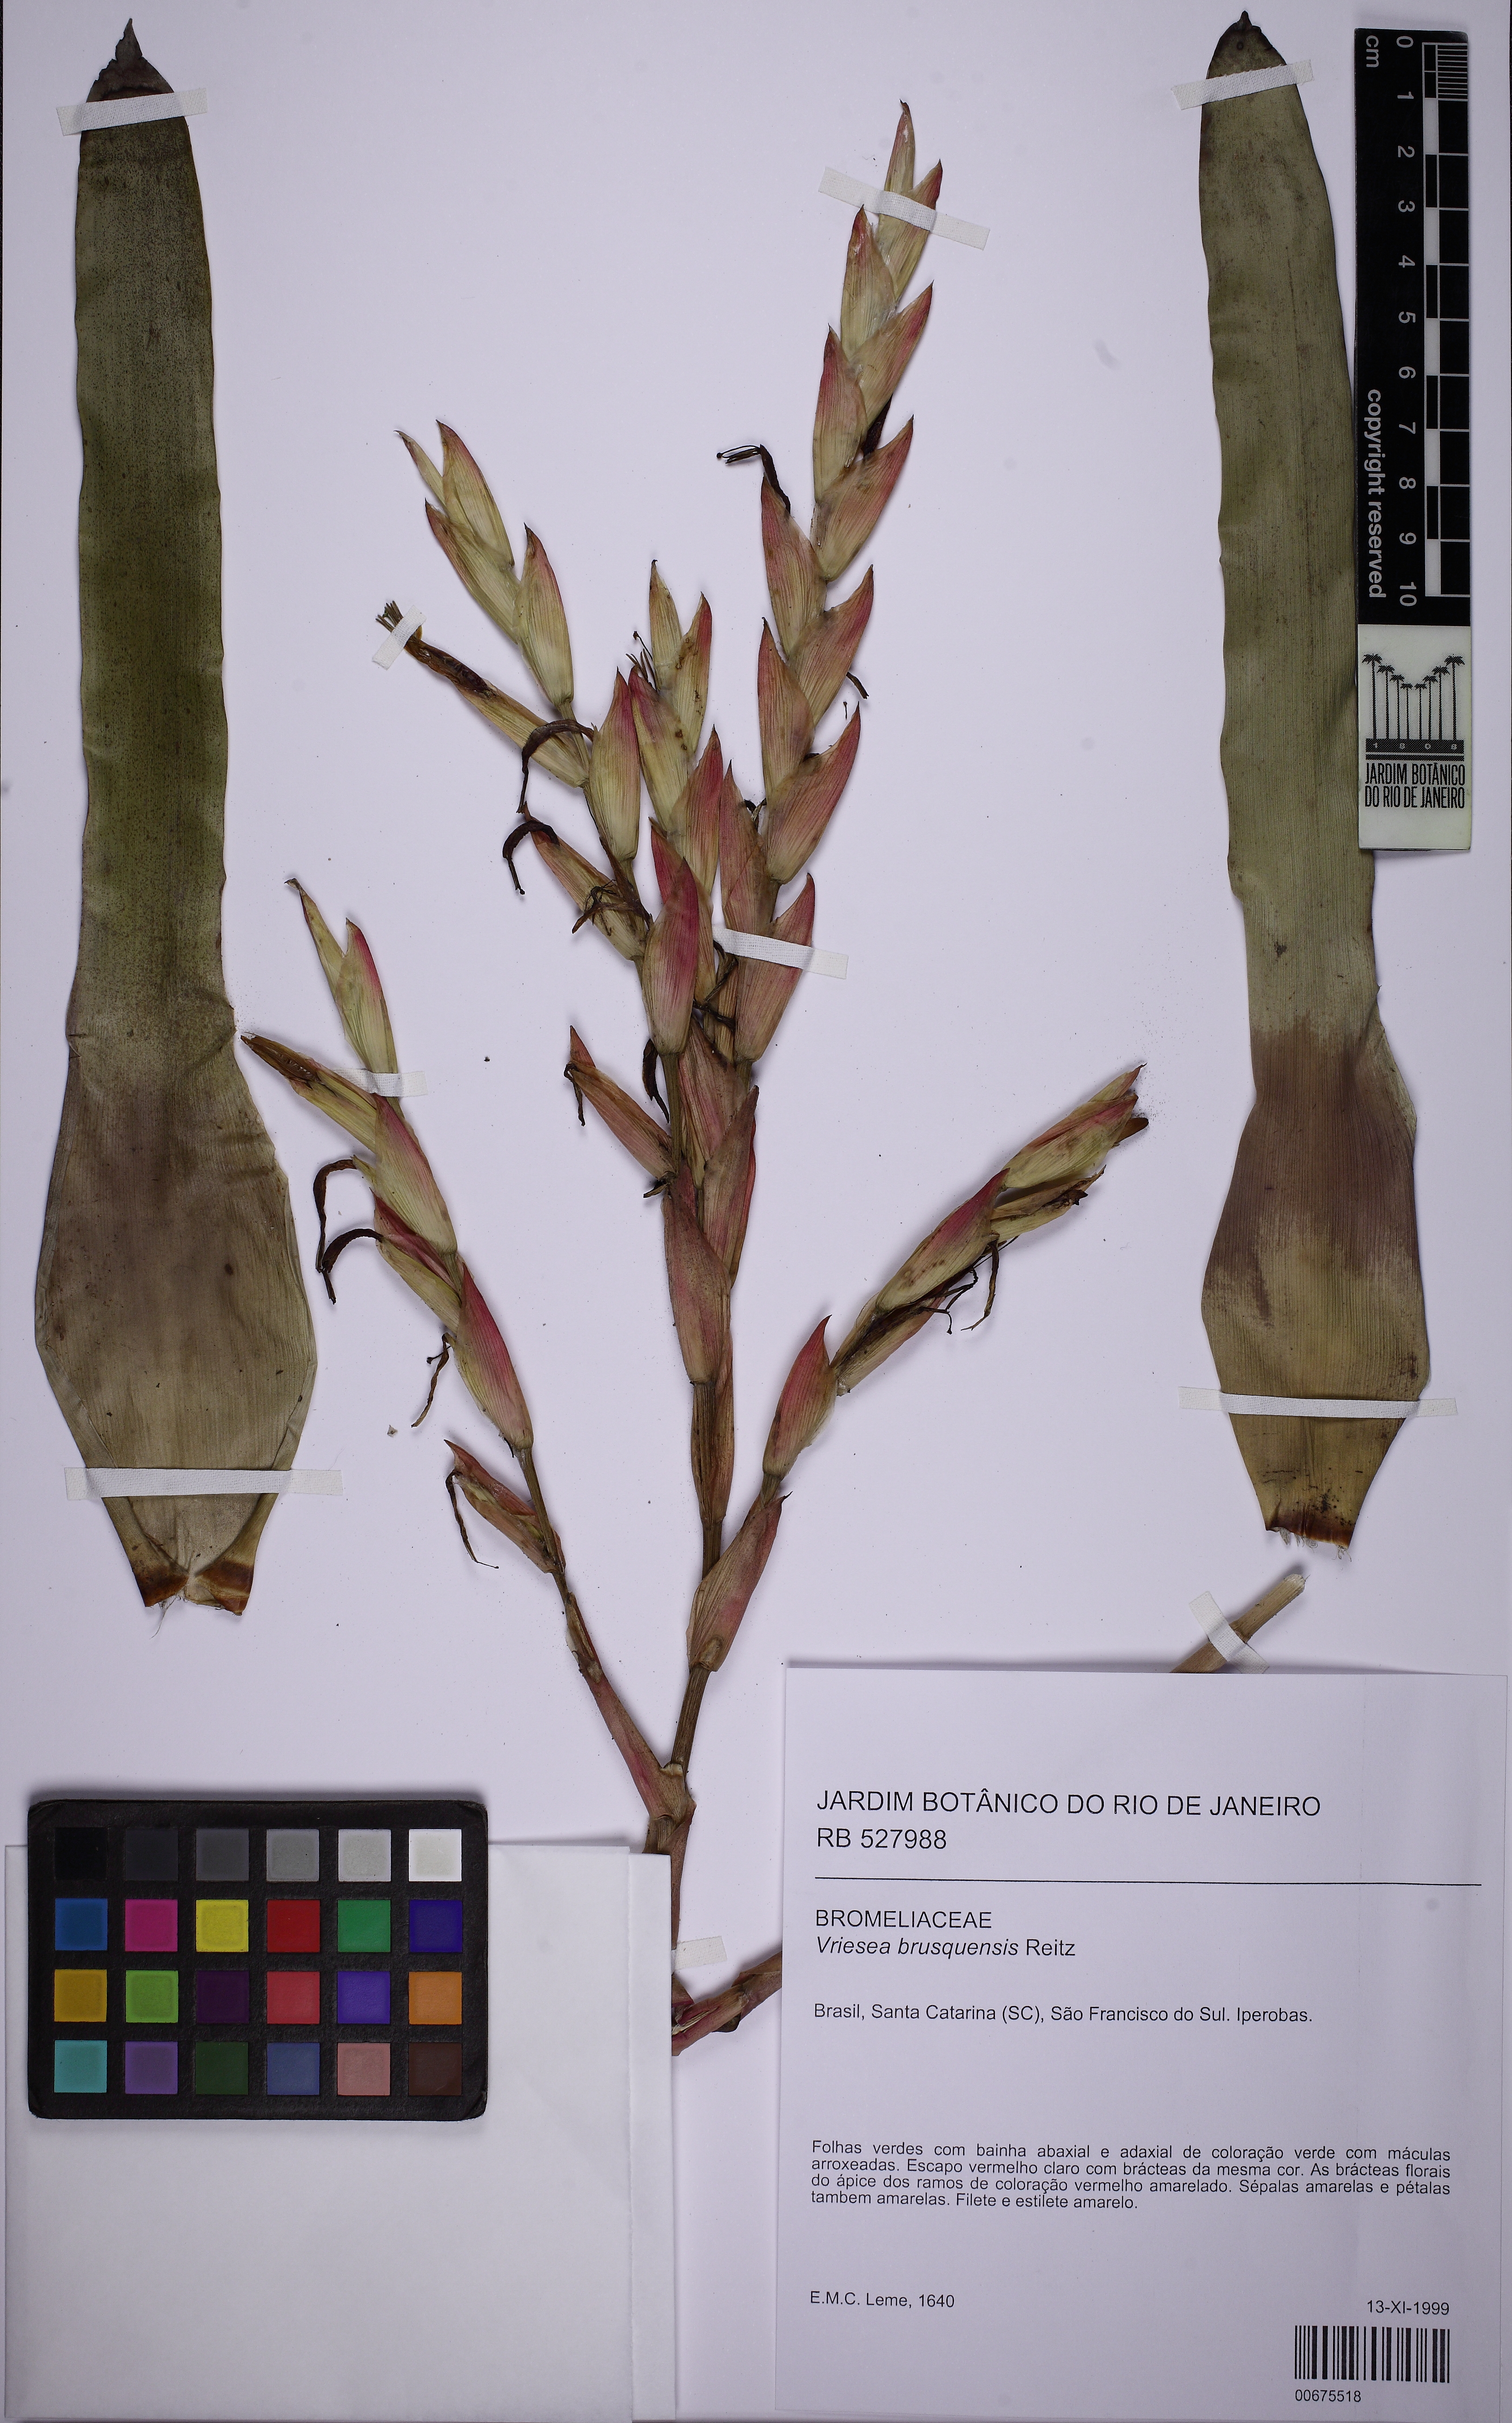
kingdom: Plantae
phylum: Tracheophyta
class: Liliopsida
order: Poales
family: Bromeliaceae
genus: Vriesea
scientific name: Vriesea brusquensis
